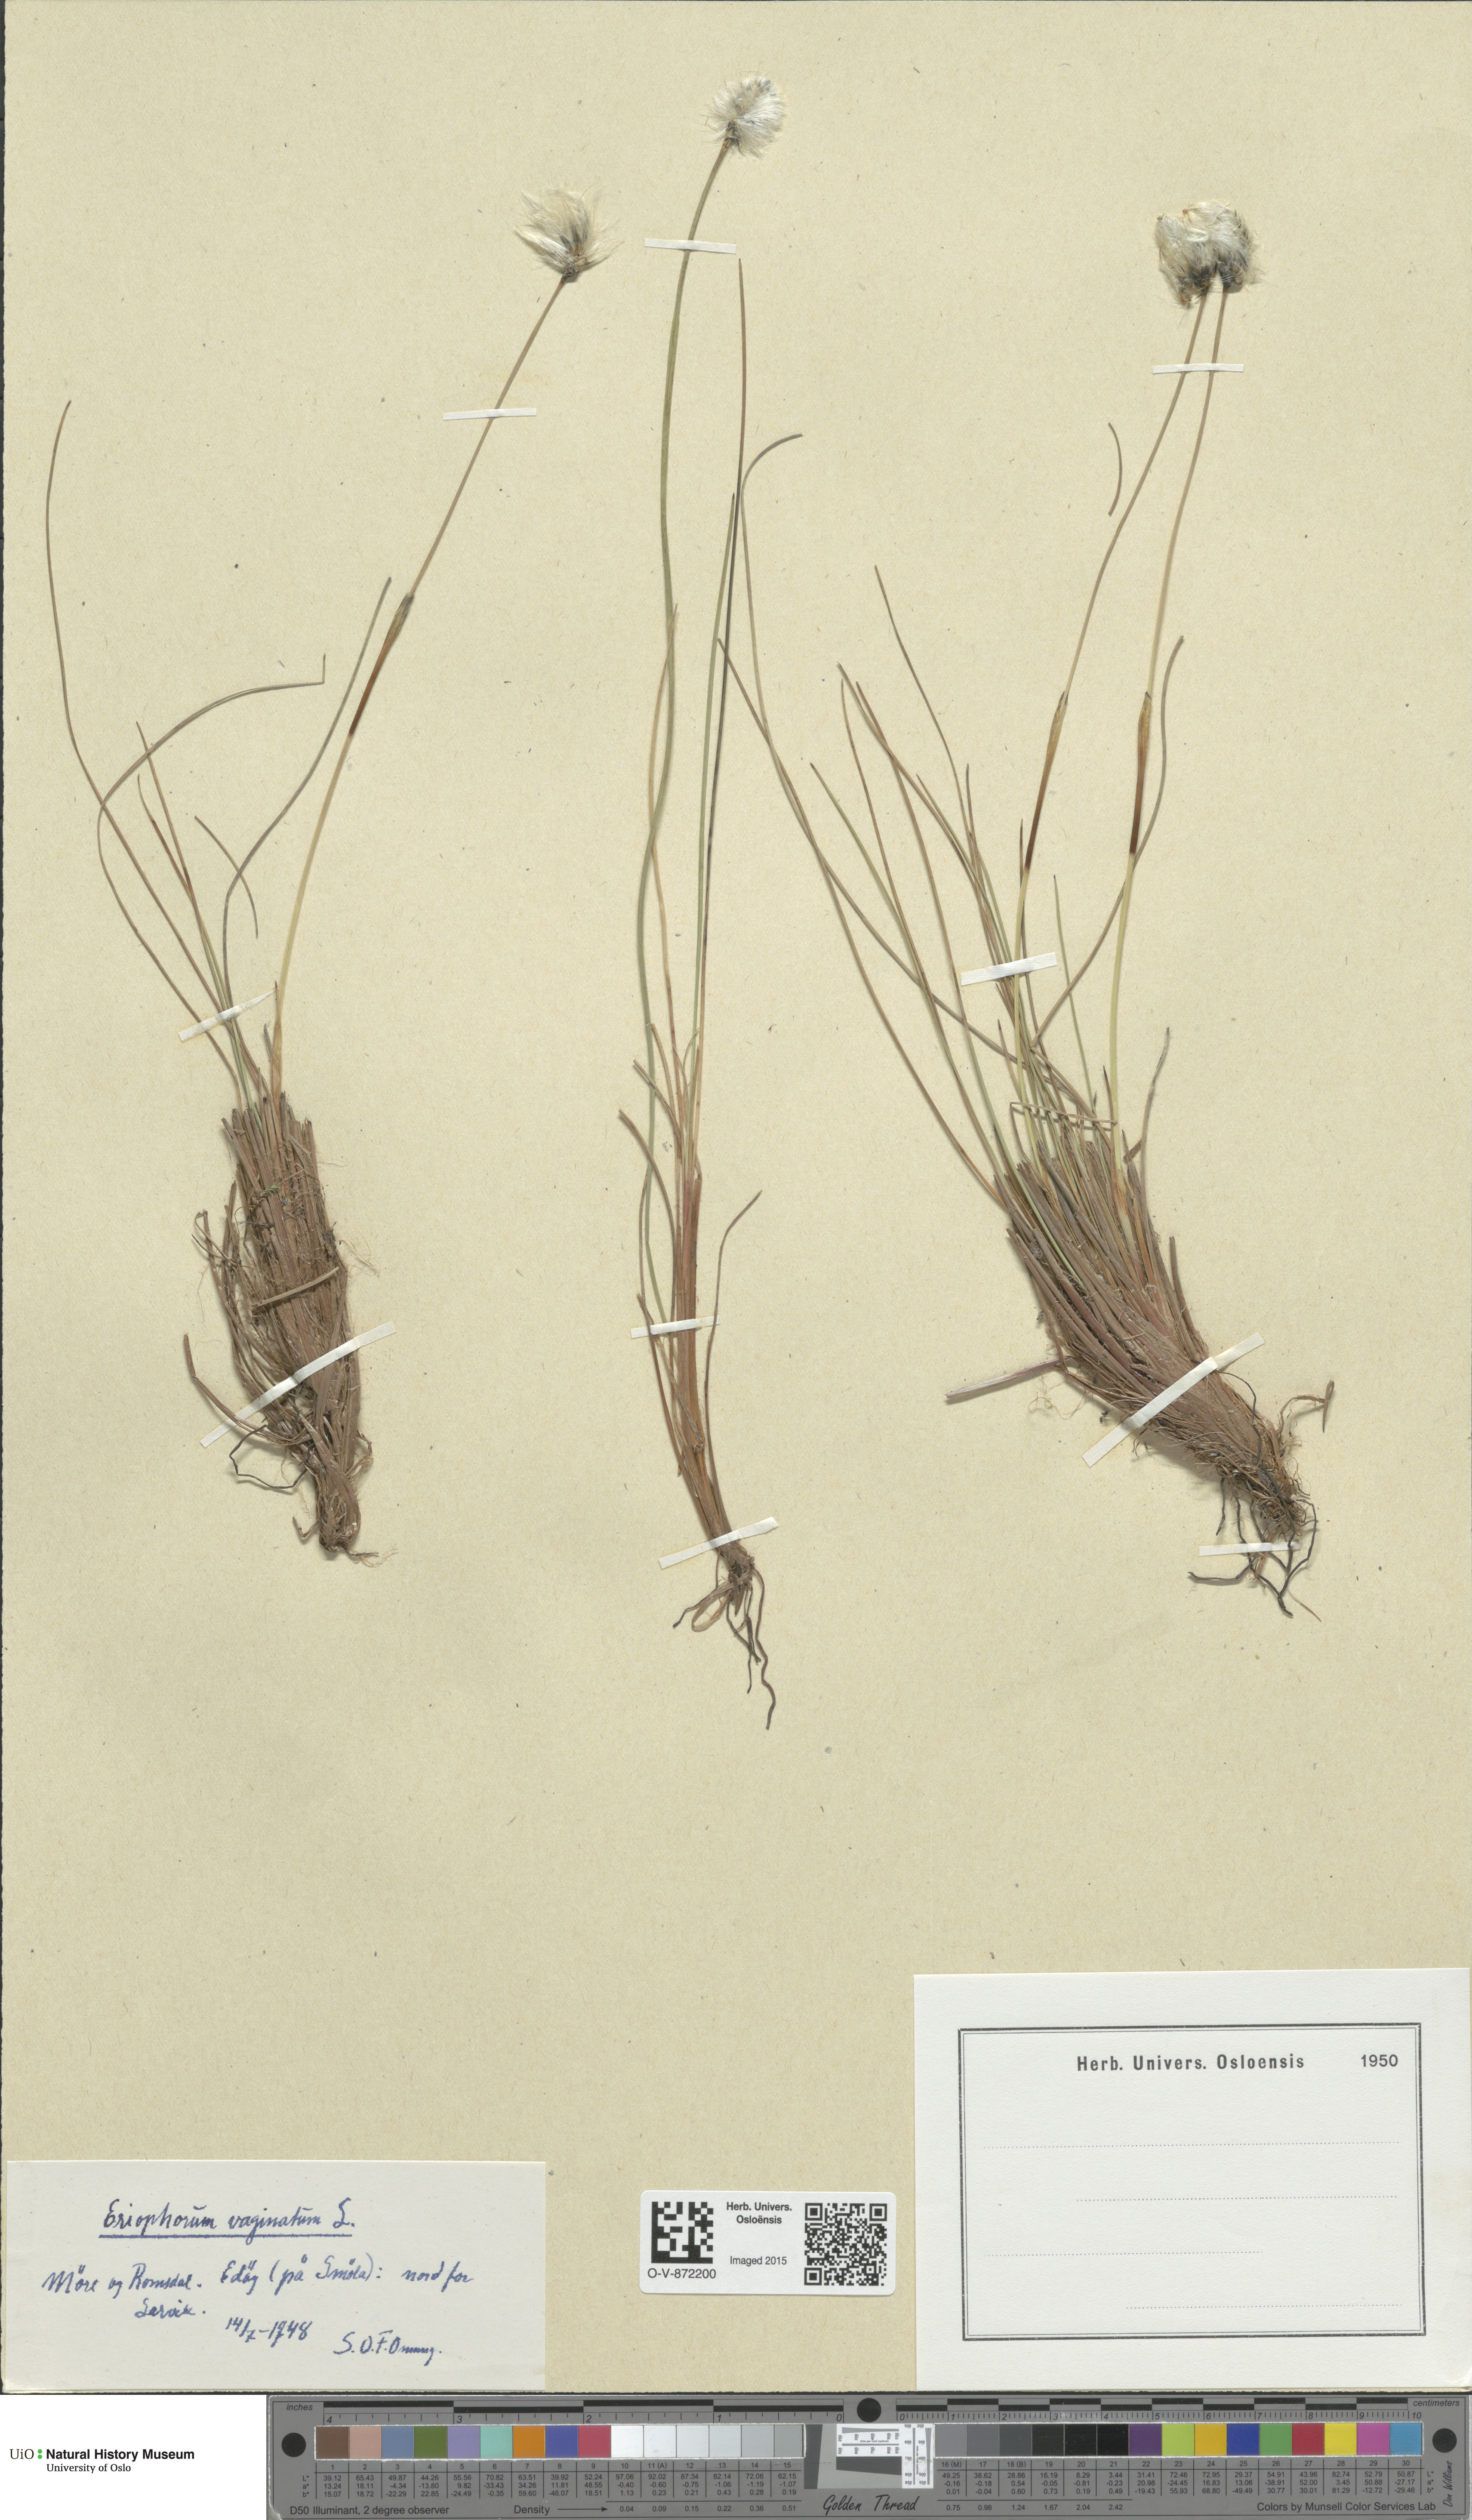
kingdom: Plantae
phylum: Tracheophyta
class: Liliopsida
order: Poales
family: Cyperaceae
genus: Eriophorum
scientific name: Eriophorum vaginatum
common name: Hare's-tail cottongrass
